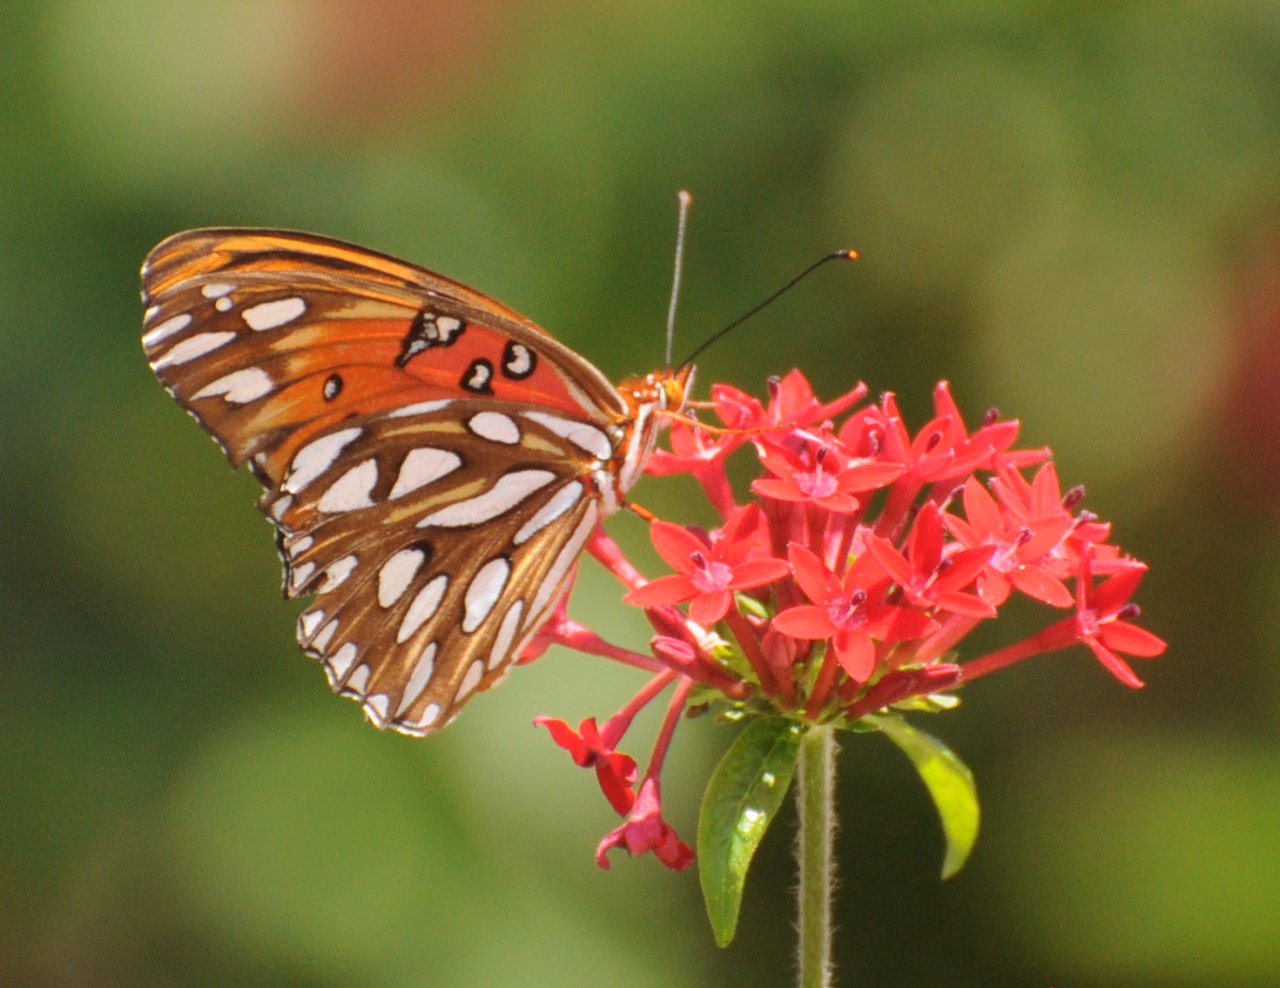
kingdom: Animalia
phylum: Arthropoda
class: Insecta
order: Lepidoptera
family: Nymphalidae
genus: Dione
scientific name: Dione vanillae
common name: Gulf Fritillary
